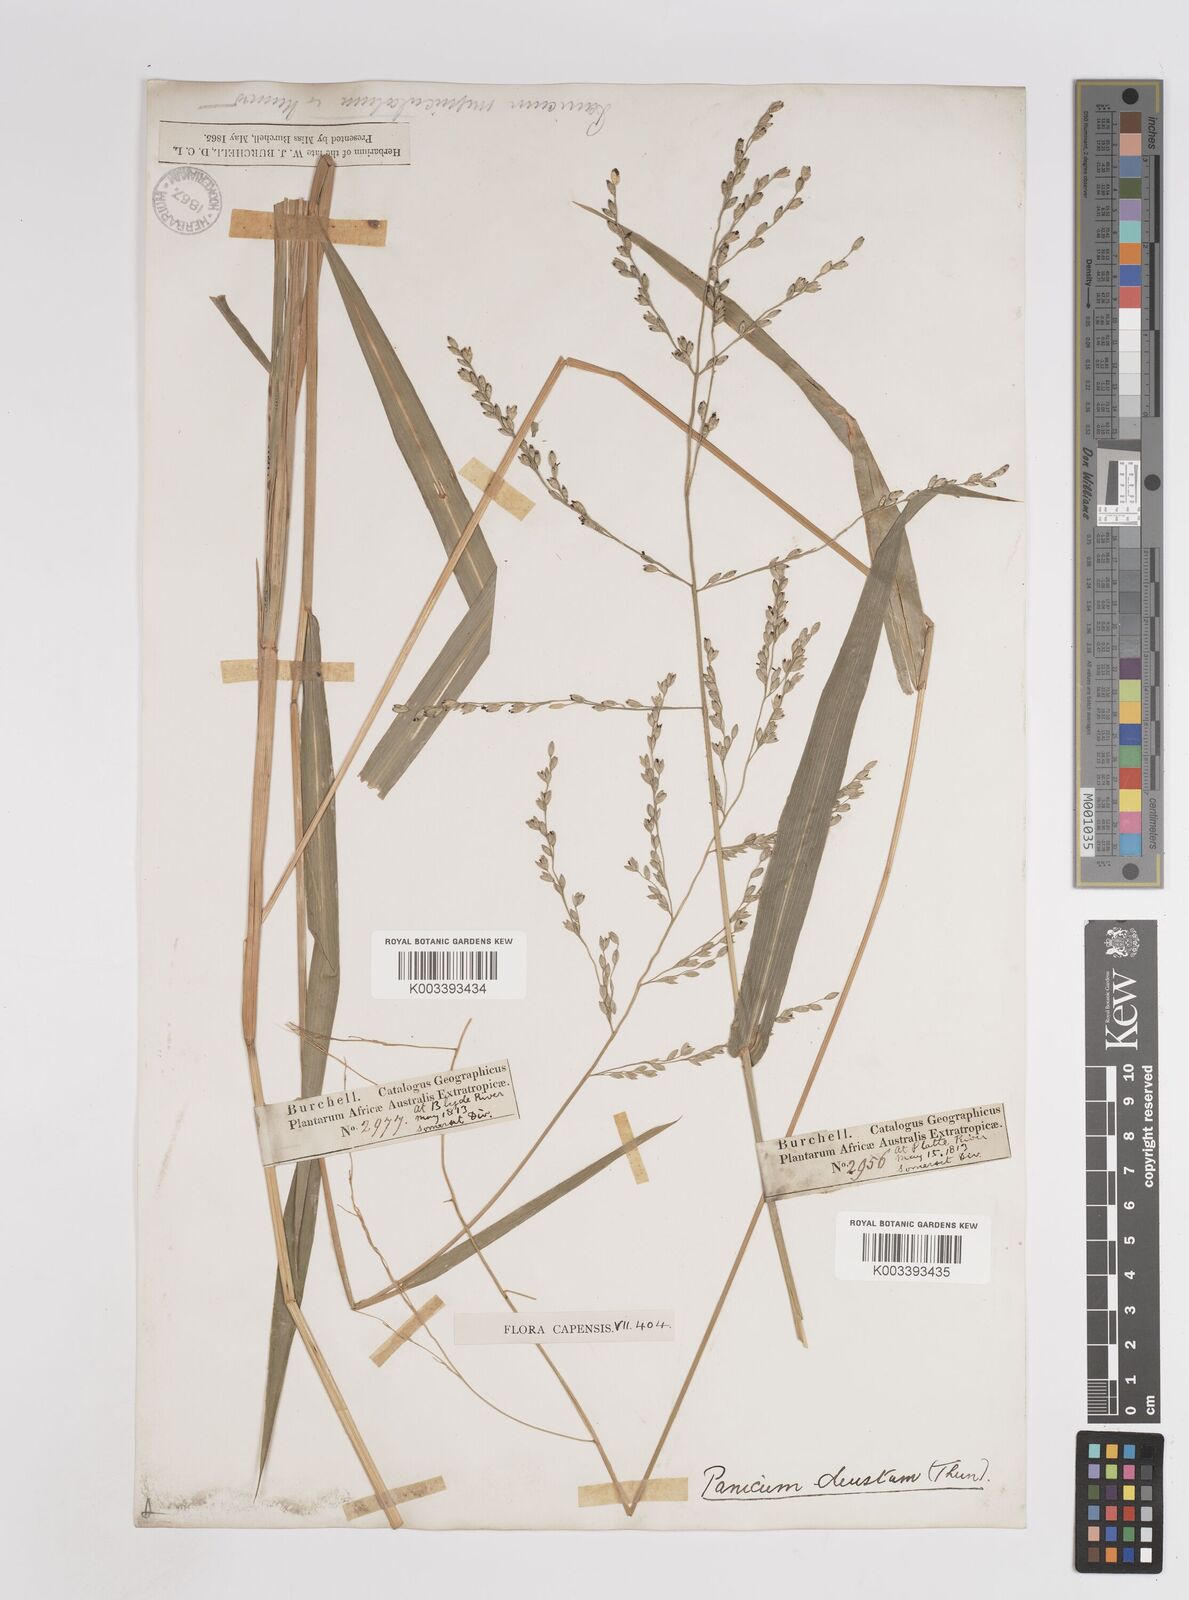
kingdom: Plantae
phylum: Tracheophyta
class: Liliopsida
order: Poales
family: Poaceae
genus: Panicum
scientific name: Panicum deustum
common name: Reed panicum
